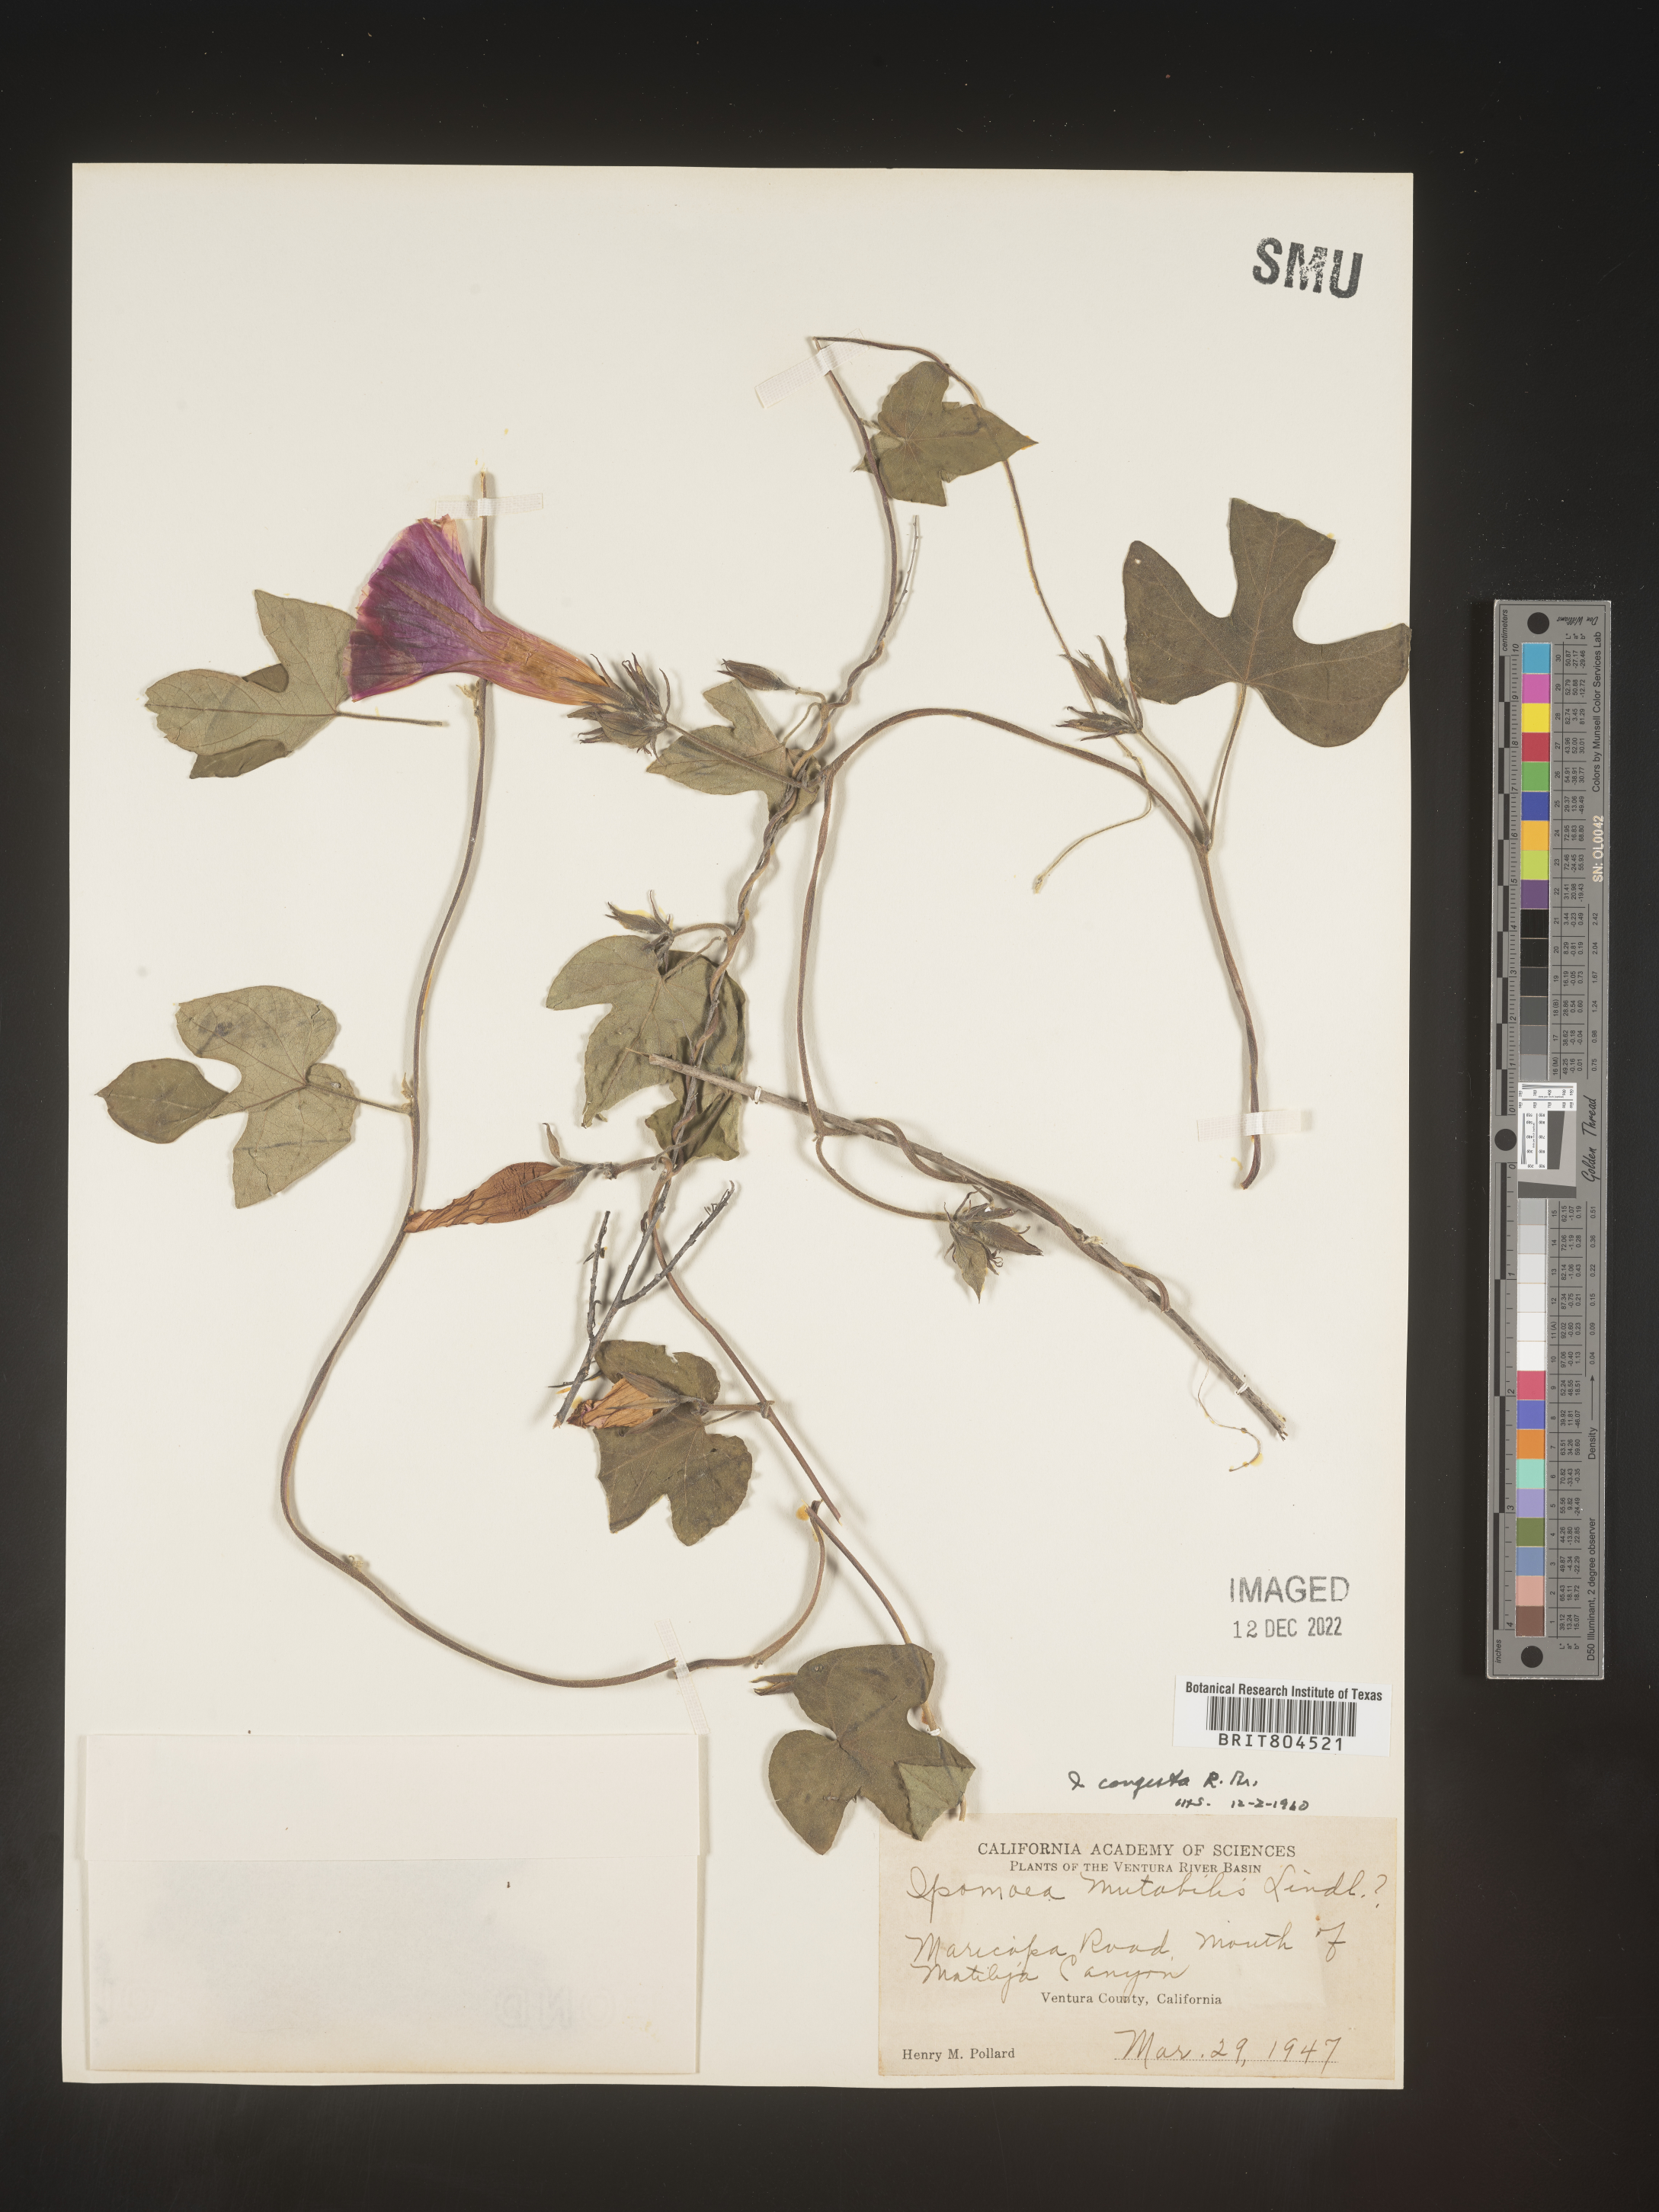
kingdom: Plantae
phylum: Tracheophyta
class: Magnoliopsida
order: Solanales
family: Convolvulaceae
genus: Ipomoea
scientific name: Ipomoea coccinea
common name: Red morning-glory
